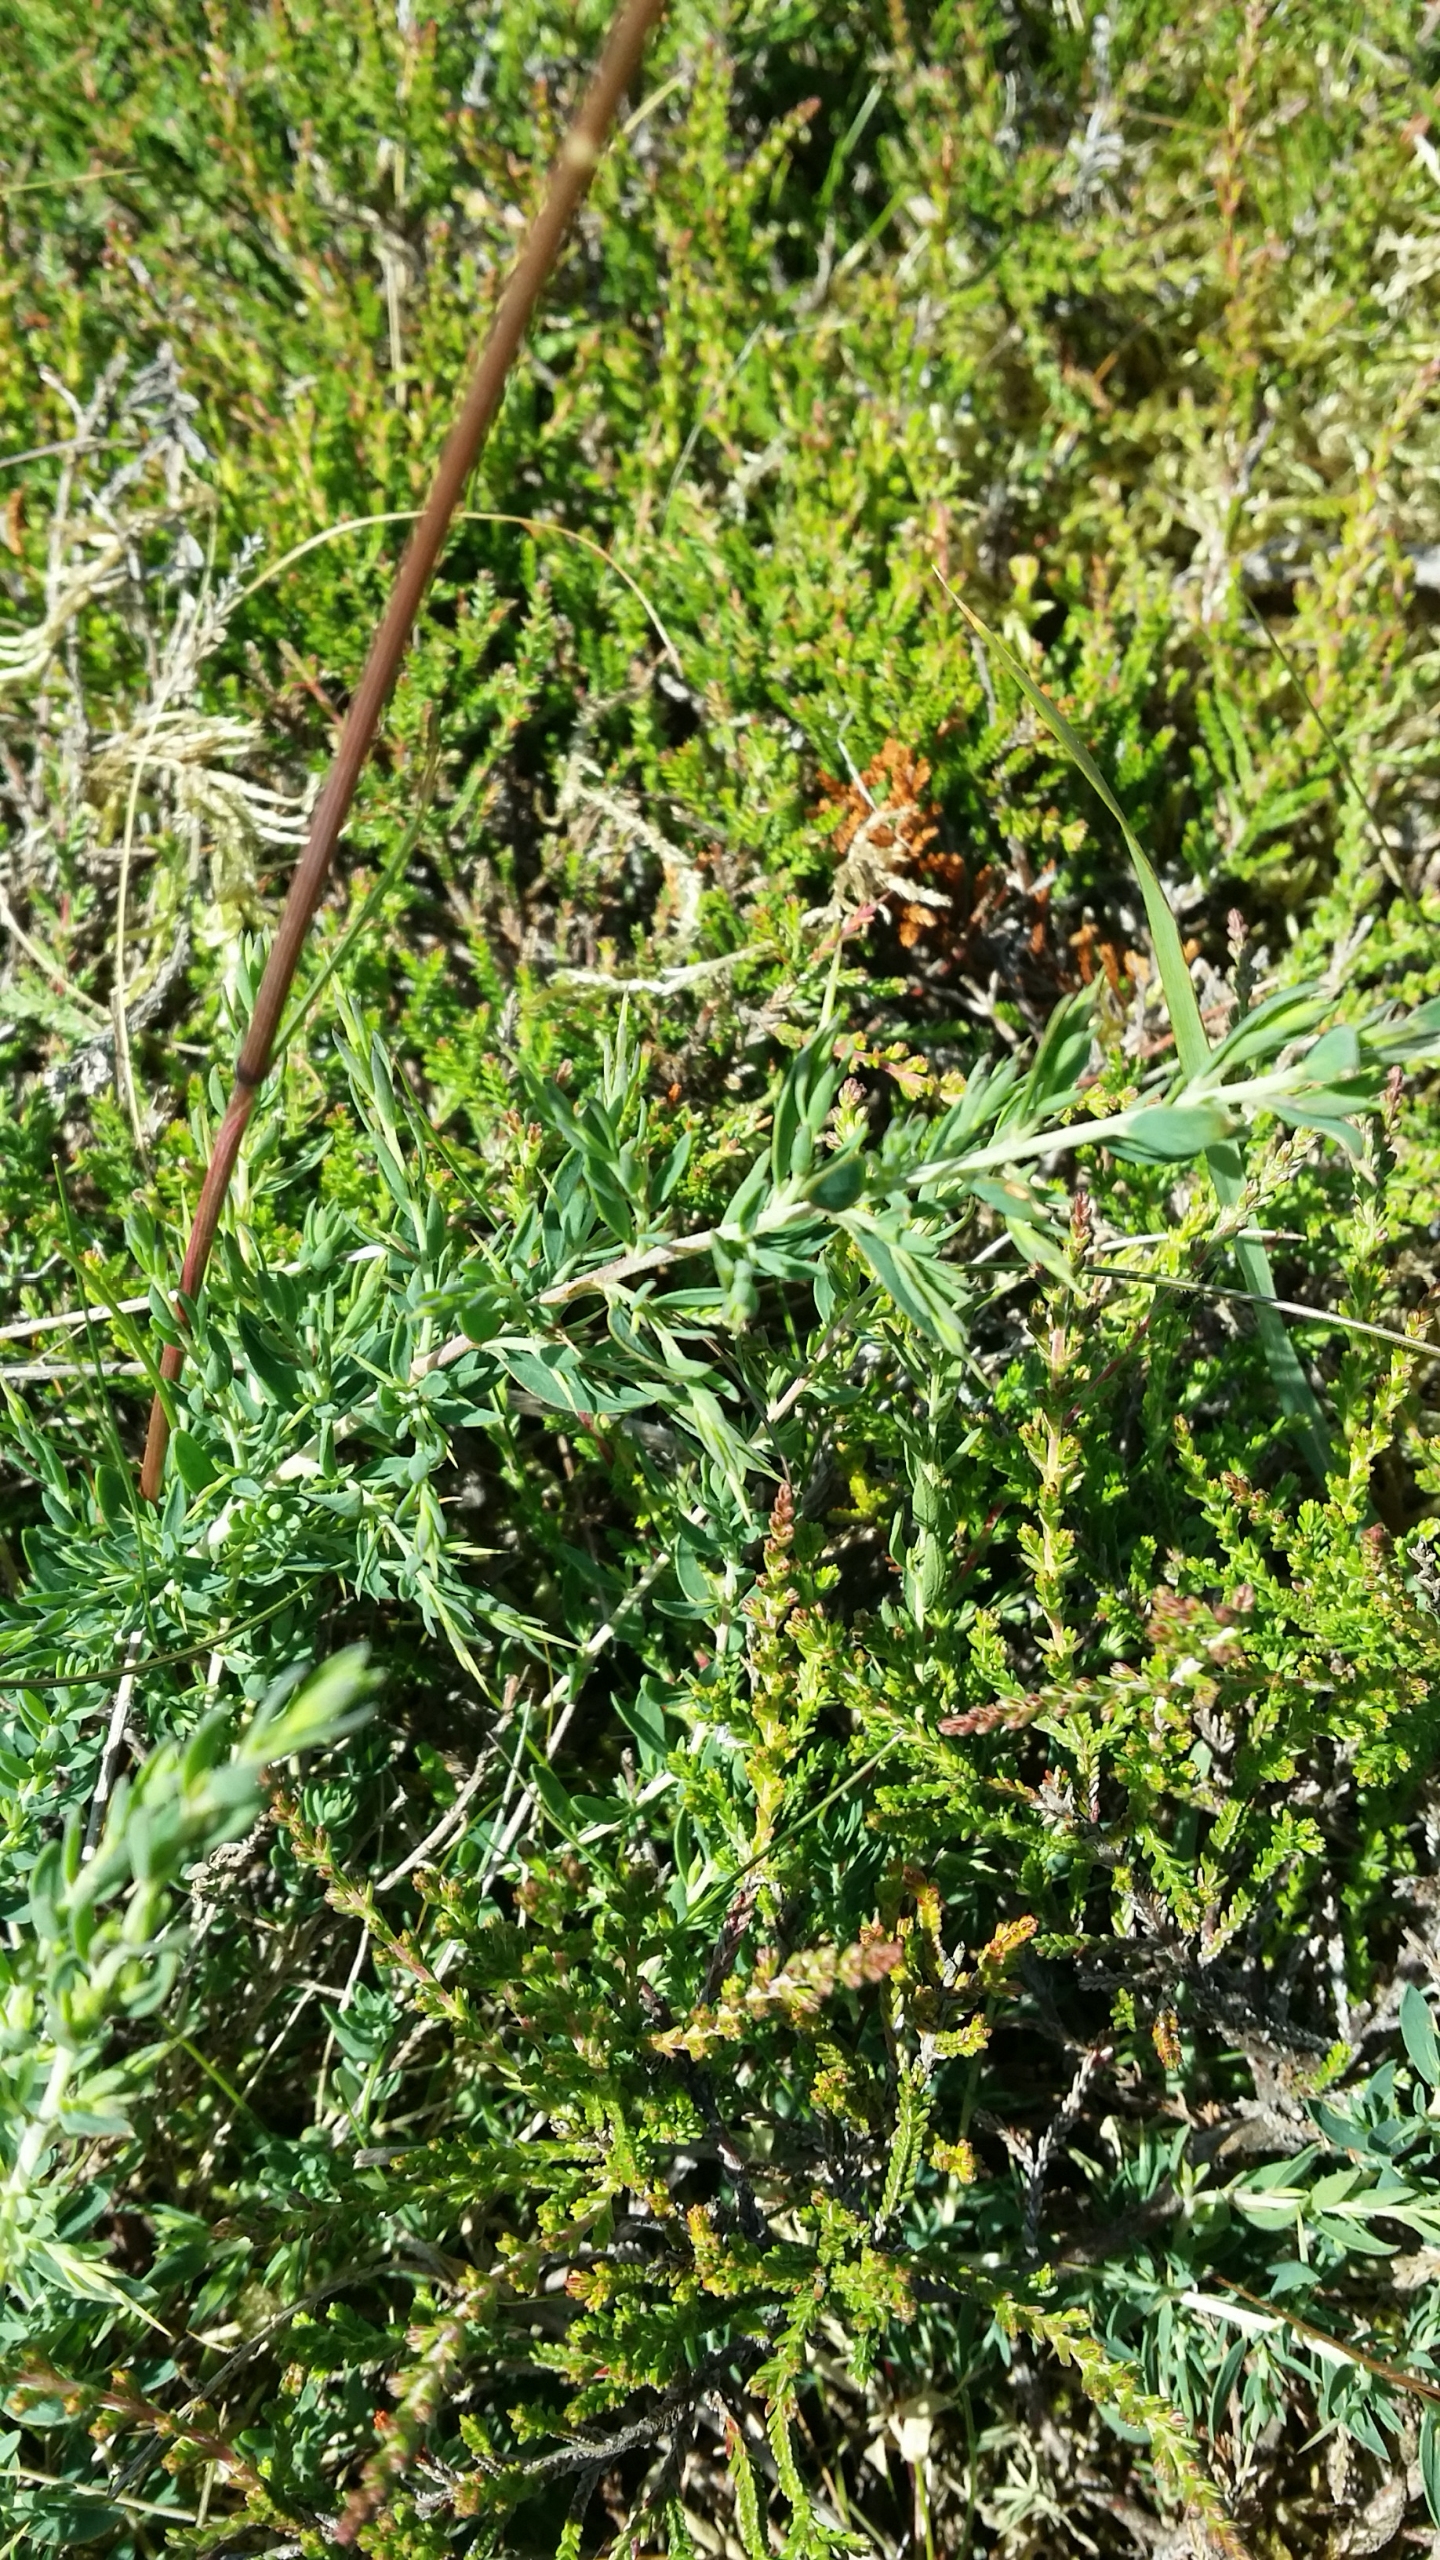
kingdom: Plantae
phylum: Tracheophyta
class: Magnoliopsida
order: Ericales
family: Ericaceae
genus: Calluna
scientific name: Calluna vulgaris
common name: Hedelyng
